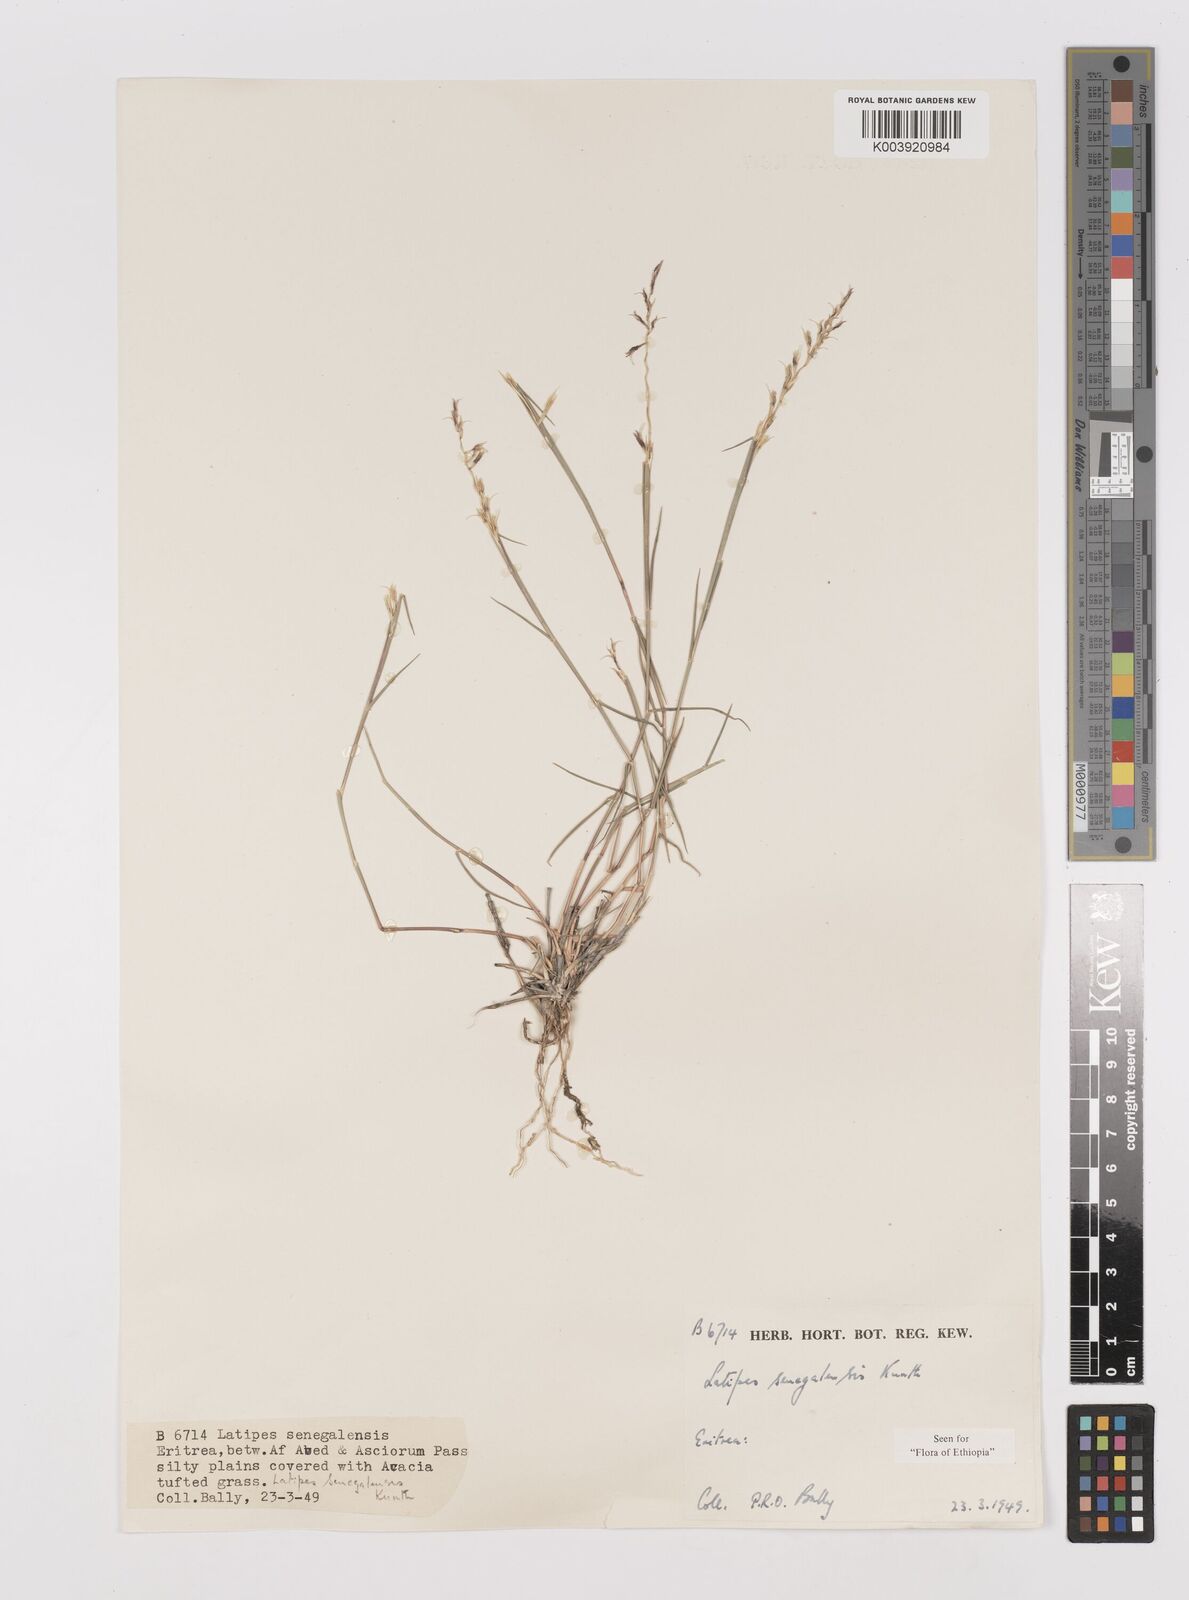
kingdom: Plantae
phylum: Tracheophyta
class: Liliopsida
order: Poales
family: Poaceae
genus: Leptothrium
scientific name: Leptothrium senegalense
